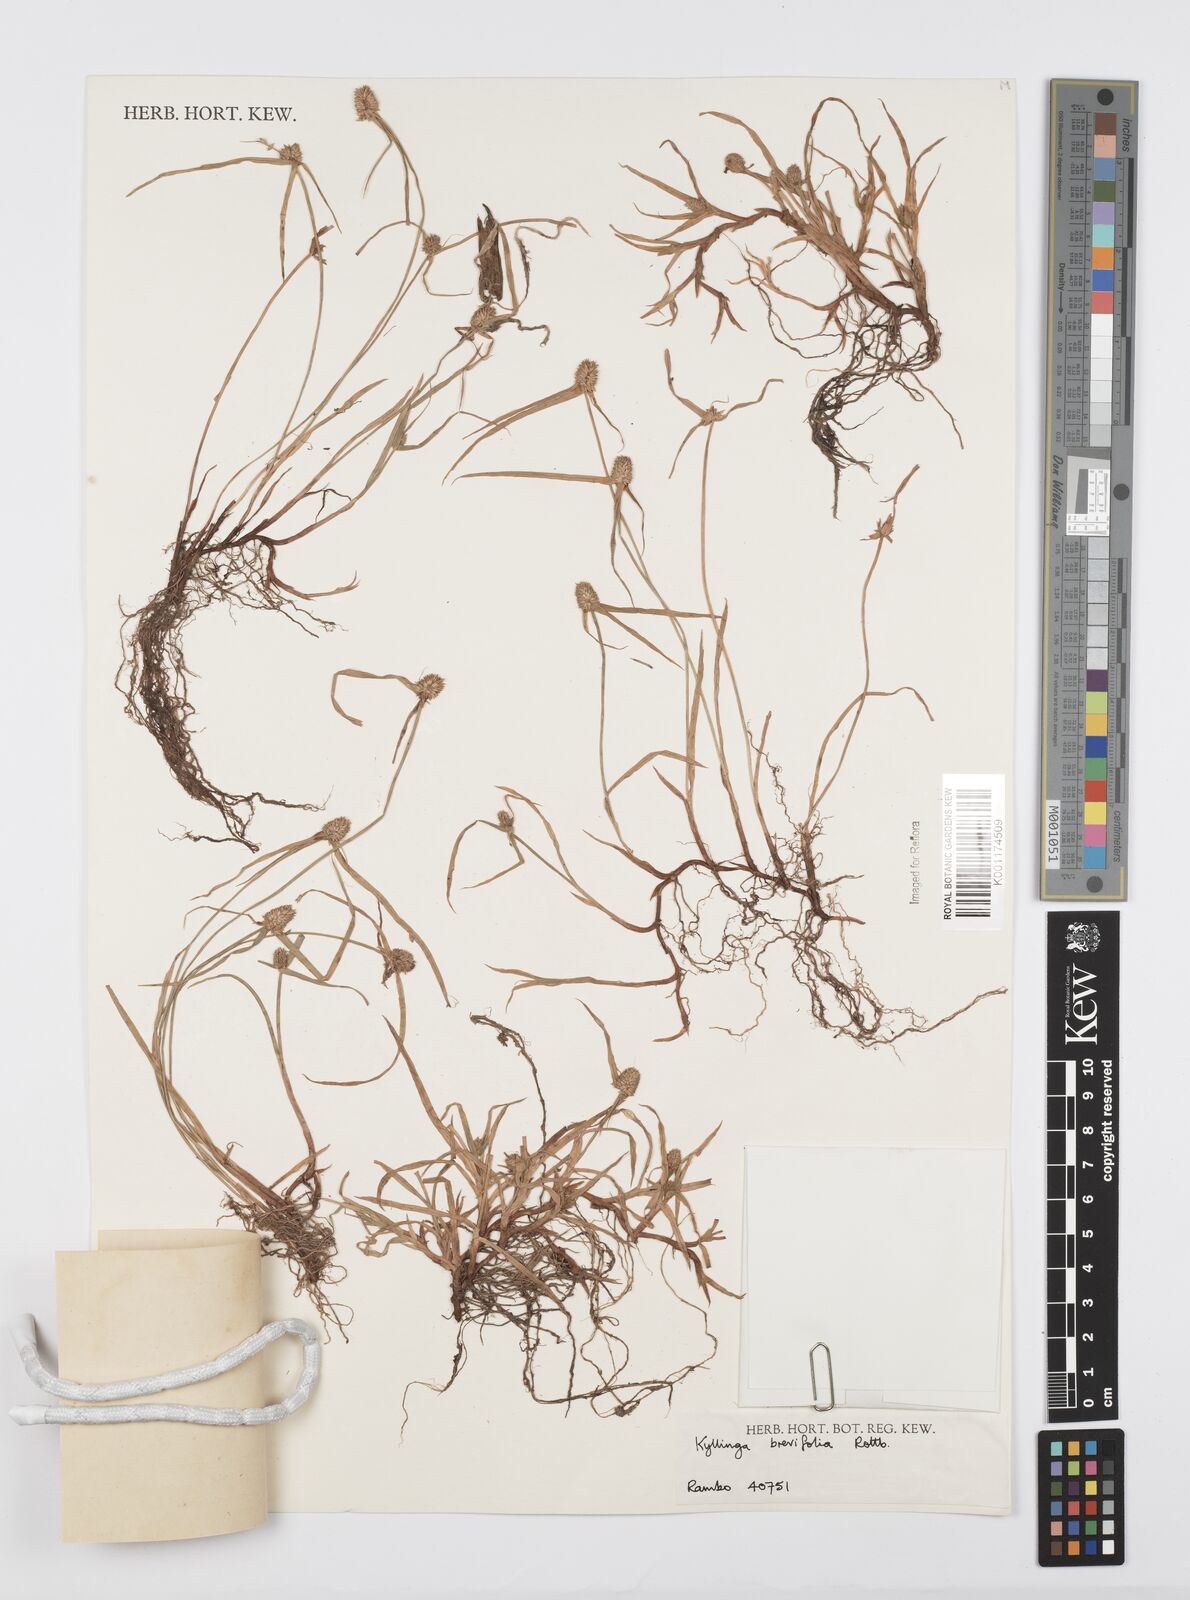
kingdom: Plantae
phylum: Tracheophyta
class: Liliopsida
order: Poales
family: Cyperaceae
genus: Cyperus
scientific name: Cyperus brevifolius
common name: Globe kyllinga
